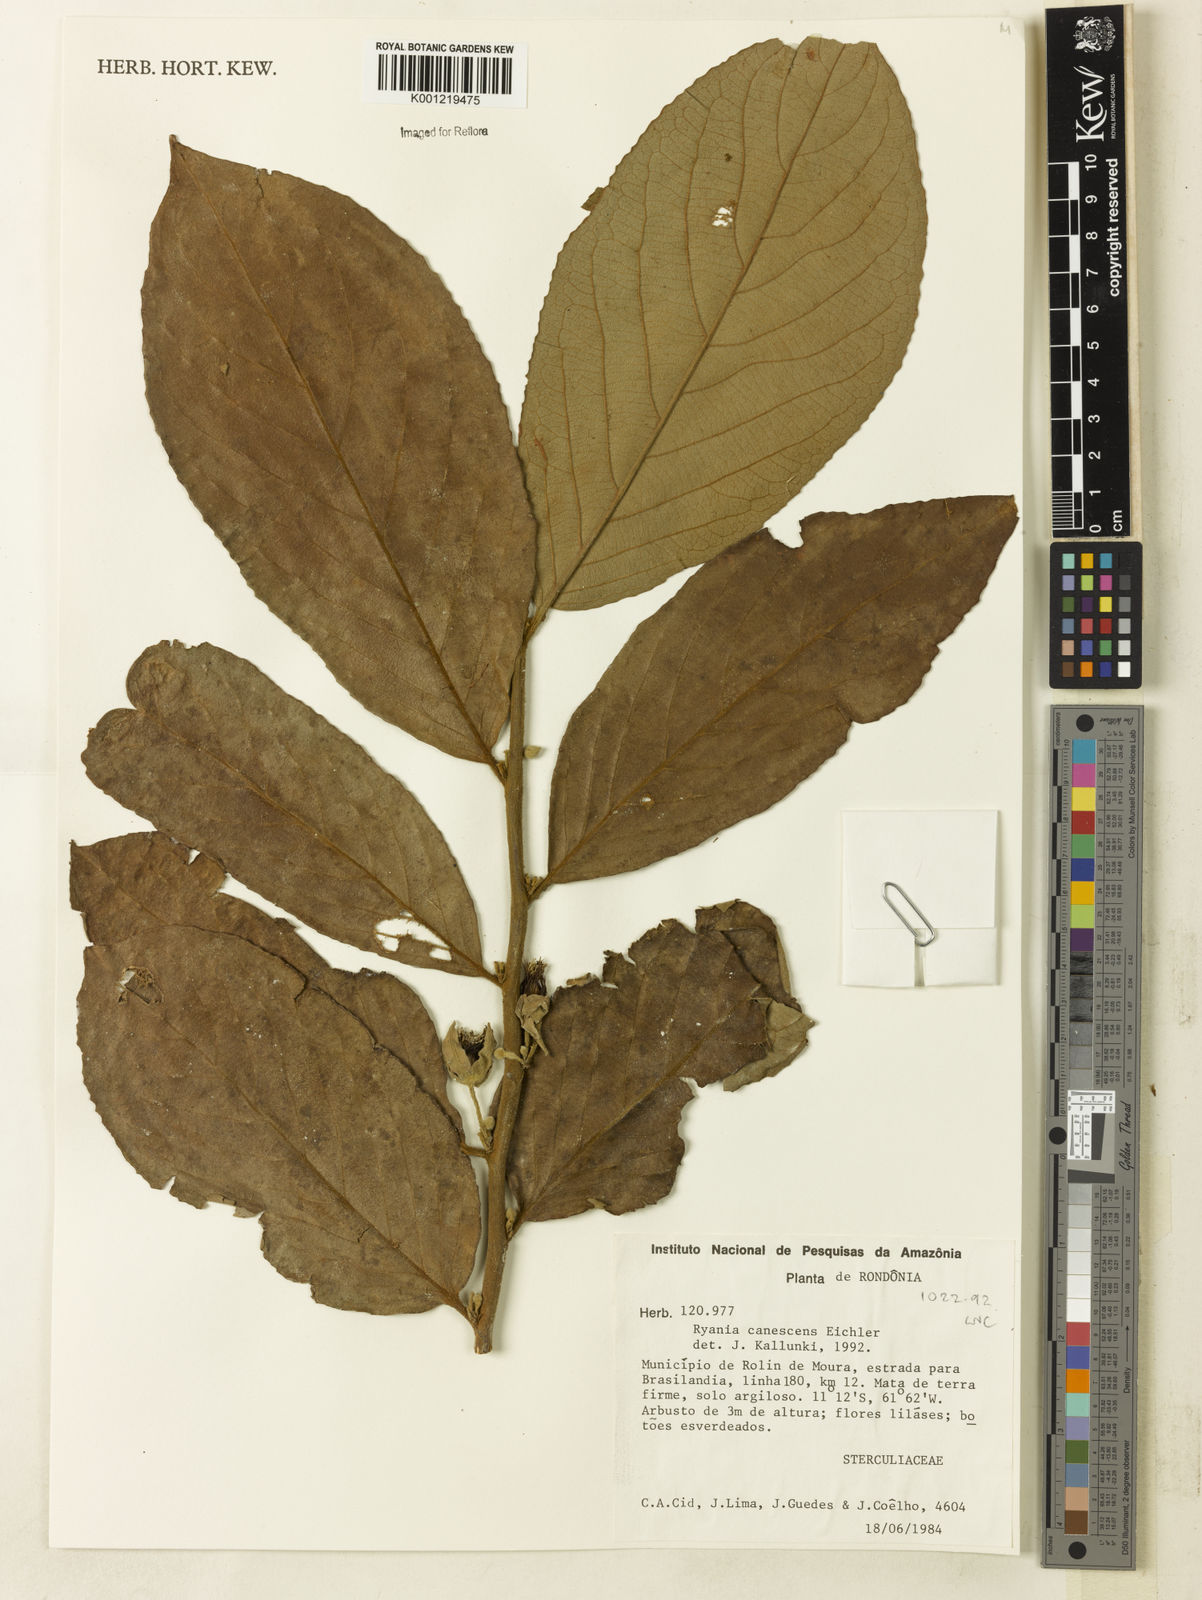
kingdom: Plantae
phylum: Tracheophyta
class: Magnoliopsida
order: Malpighiales
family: Salicaceae
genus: Ryania
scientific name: Ryania canescens
